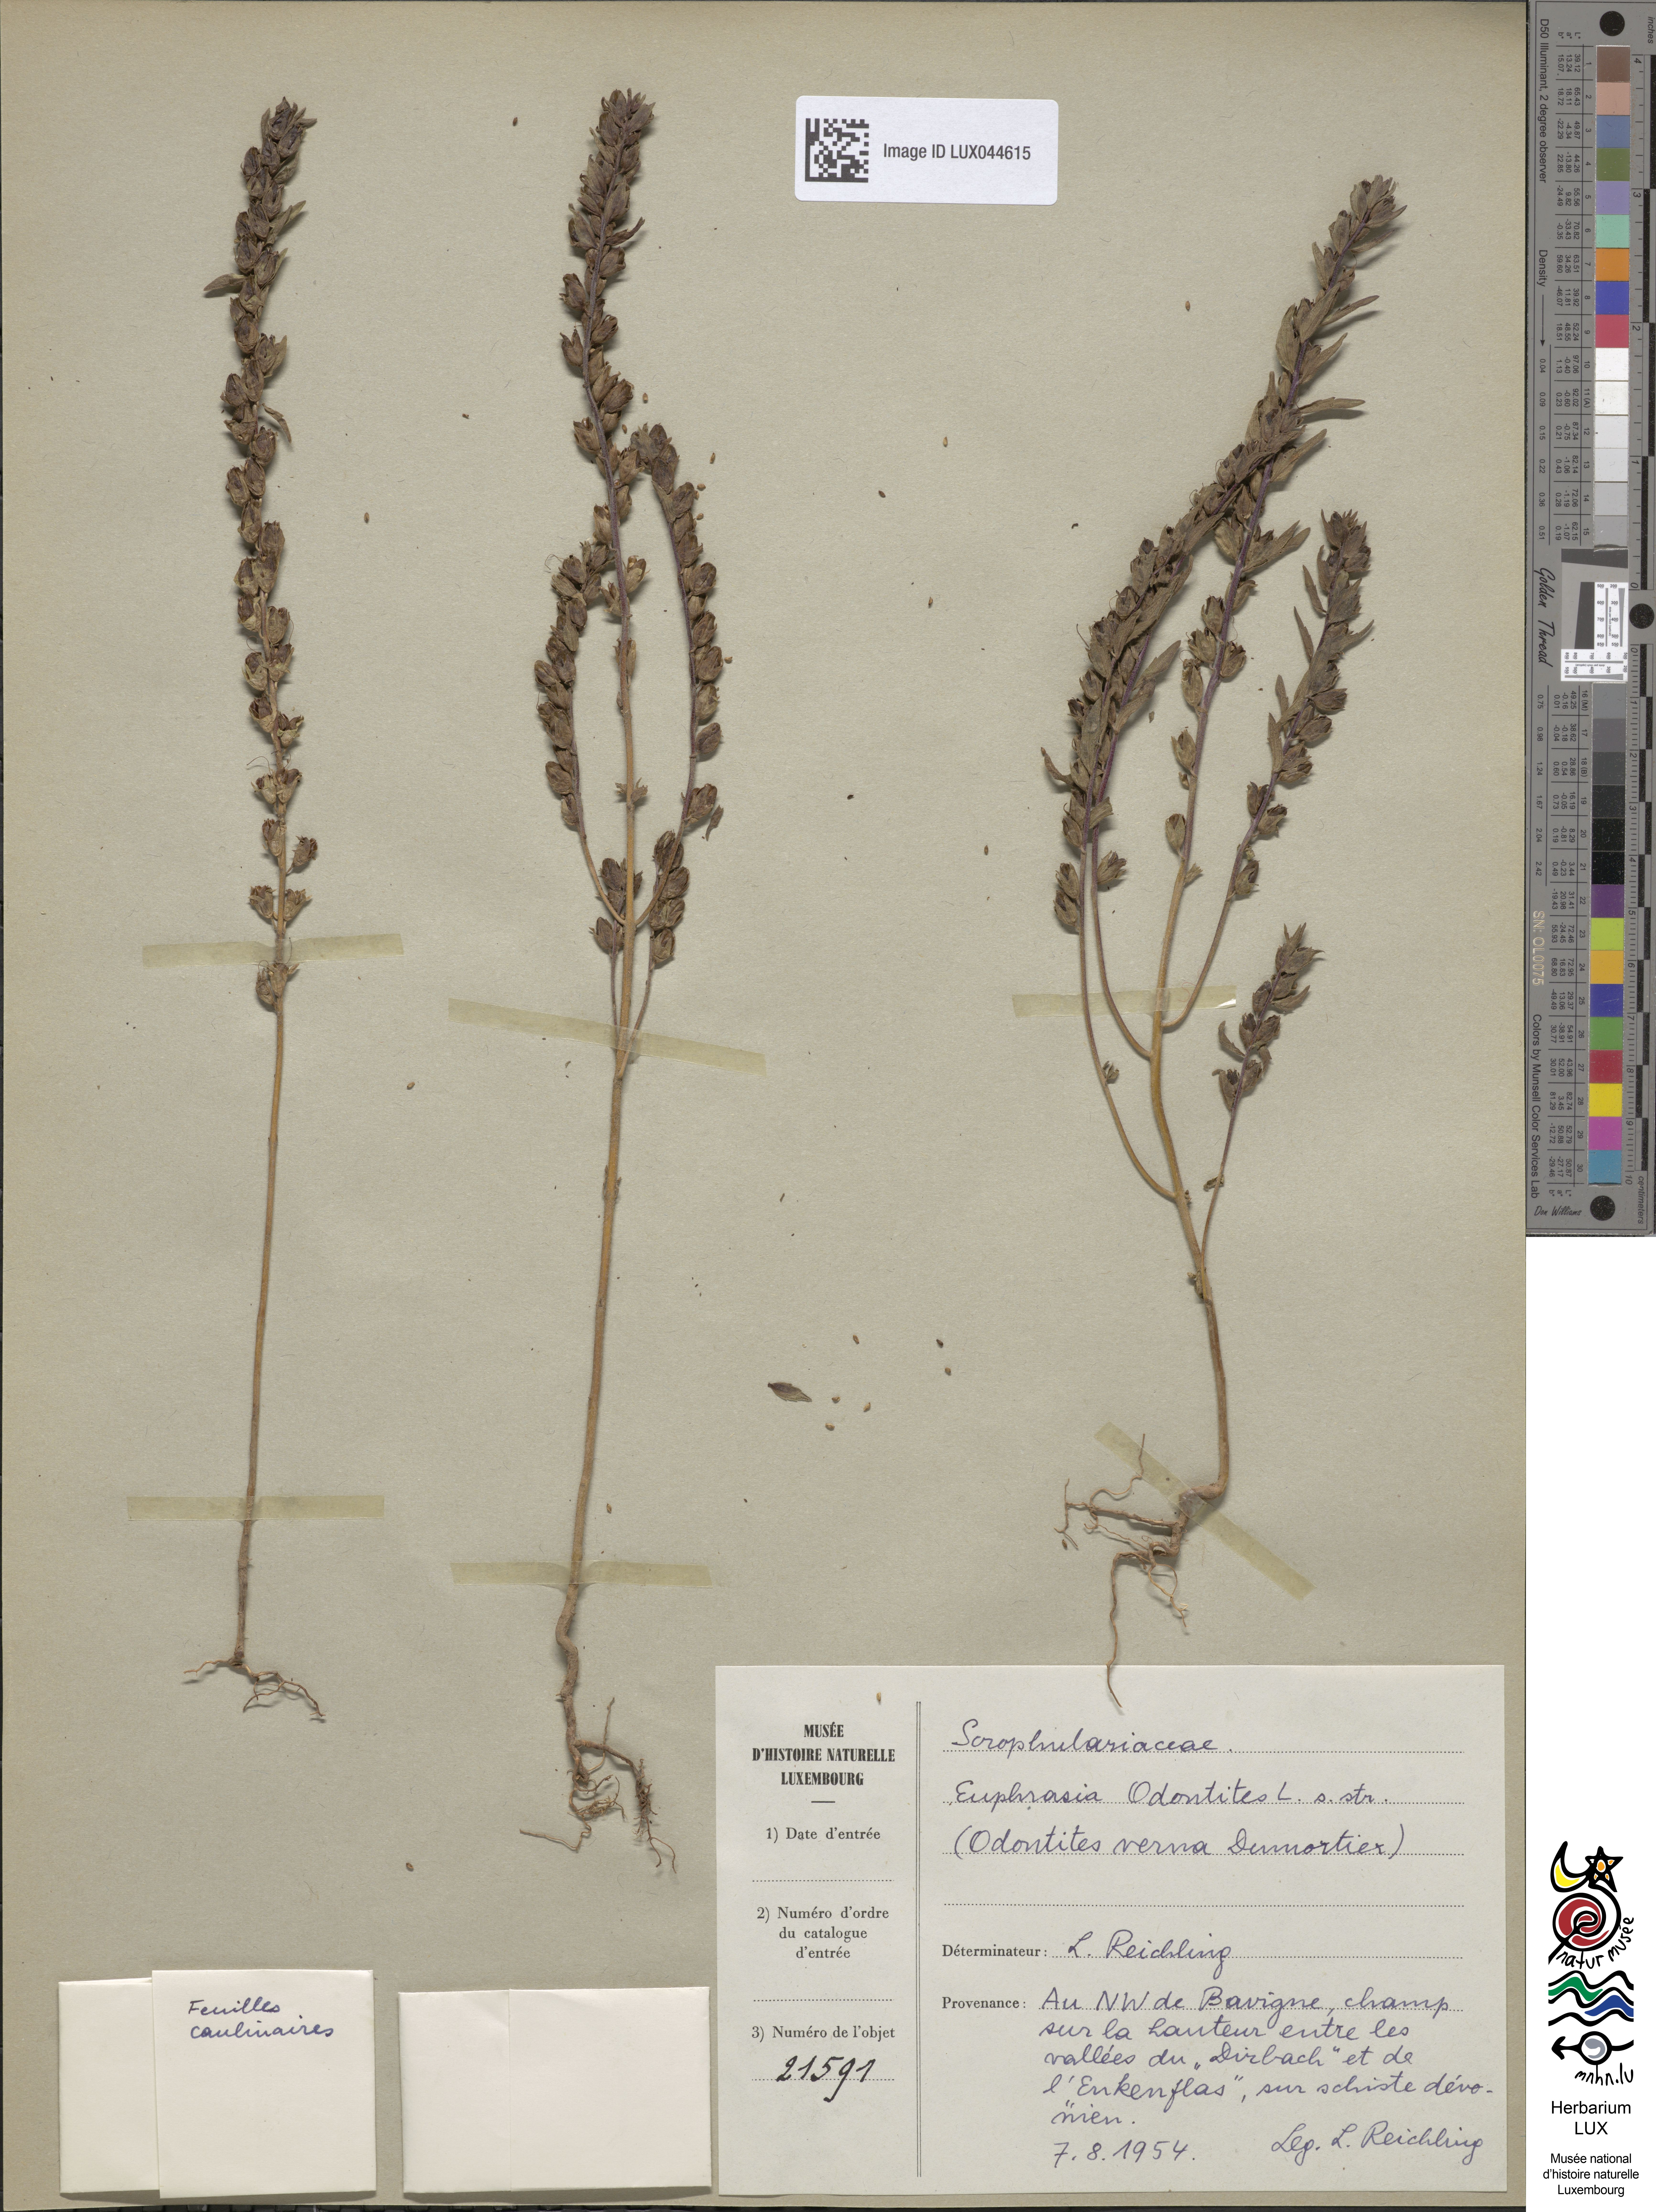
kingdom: Plantae
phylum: Tracheophyta
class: Magnoliopsida
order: Lamiales
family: Orobanchaceae
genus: Odontites
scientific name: Odontites vernus
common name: Red bartsia
